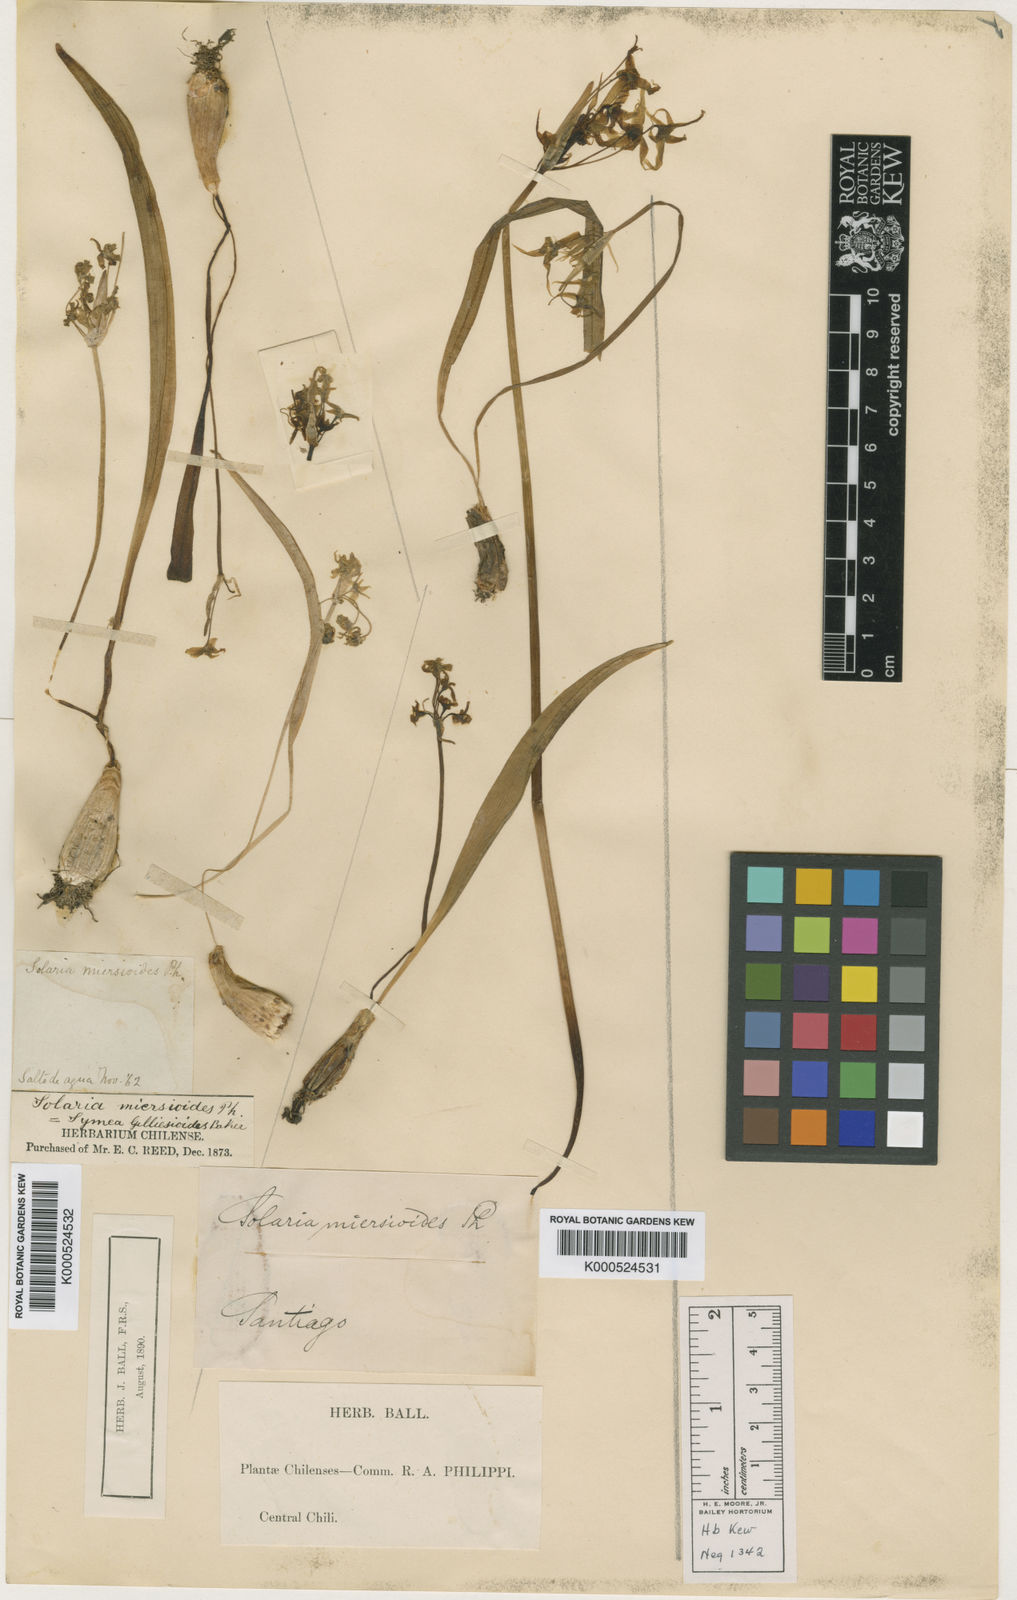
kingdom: Plantae
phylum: Tracheophyta
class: Liliopsida
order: Asparagales
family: Amaryllidaceae
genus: Gilliesia
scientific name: Gilliesia miersioides
